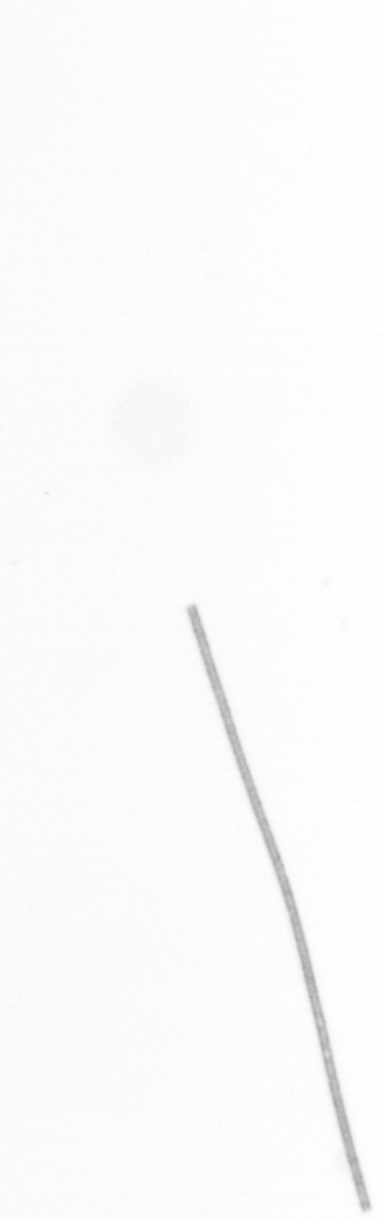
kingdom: Chromista
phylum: Ochrophyta
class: Bacillariophyceae
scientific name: Bacillariophyceae
